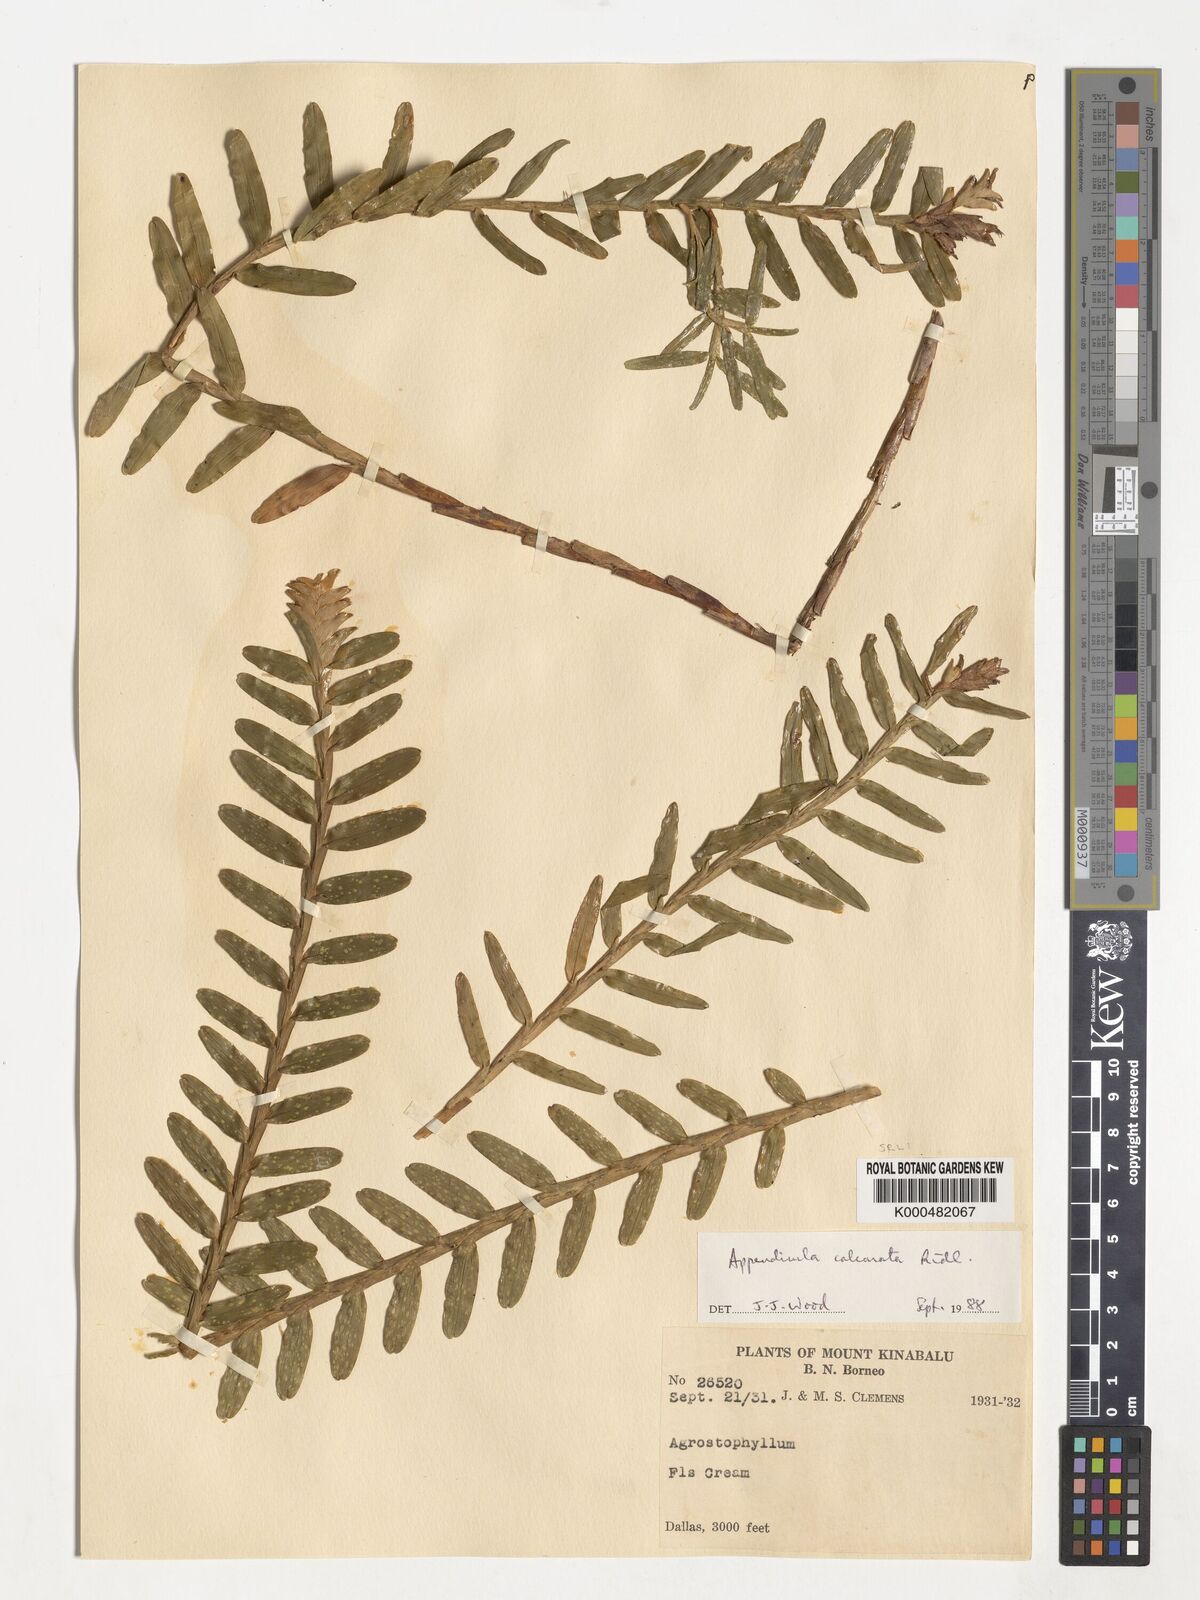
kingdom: Plantae
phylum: Tracheophyta
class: Liliopsida
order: Asparagales
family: Orchidaceae
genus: Appendicula
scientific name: Appendicula calcarata
